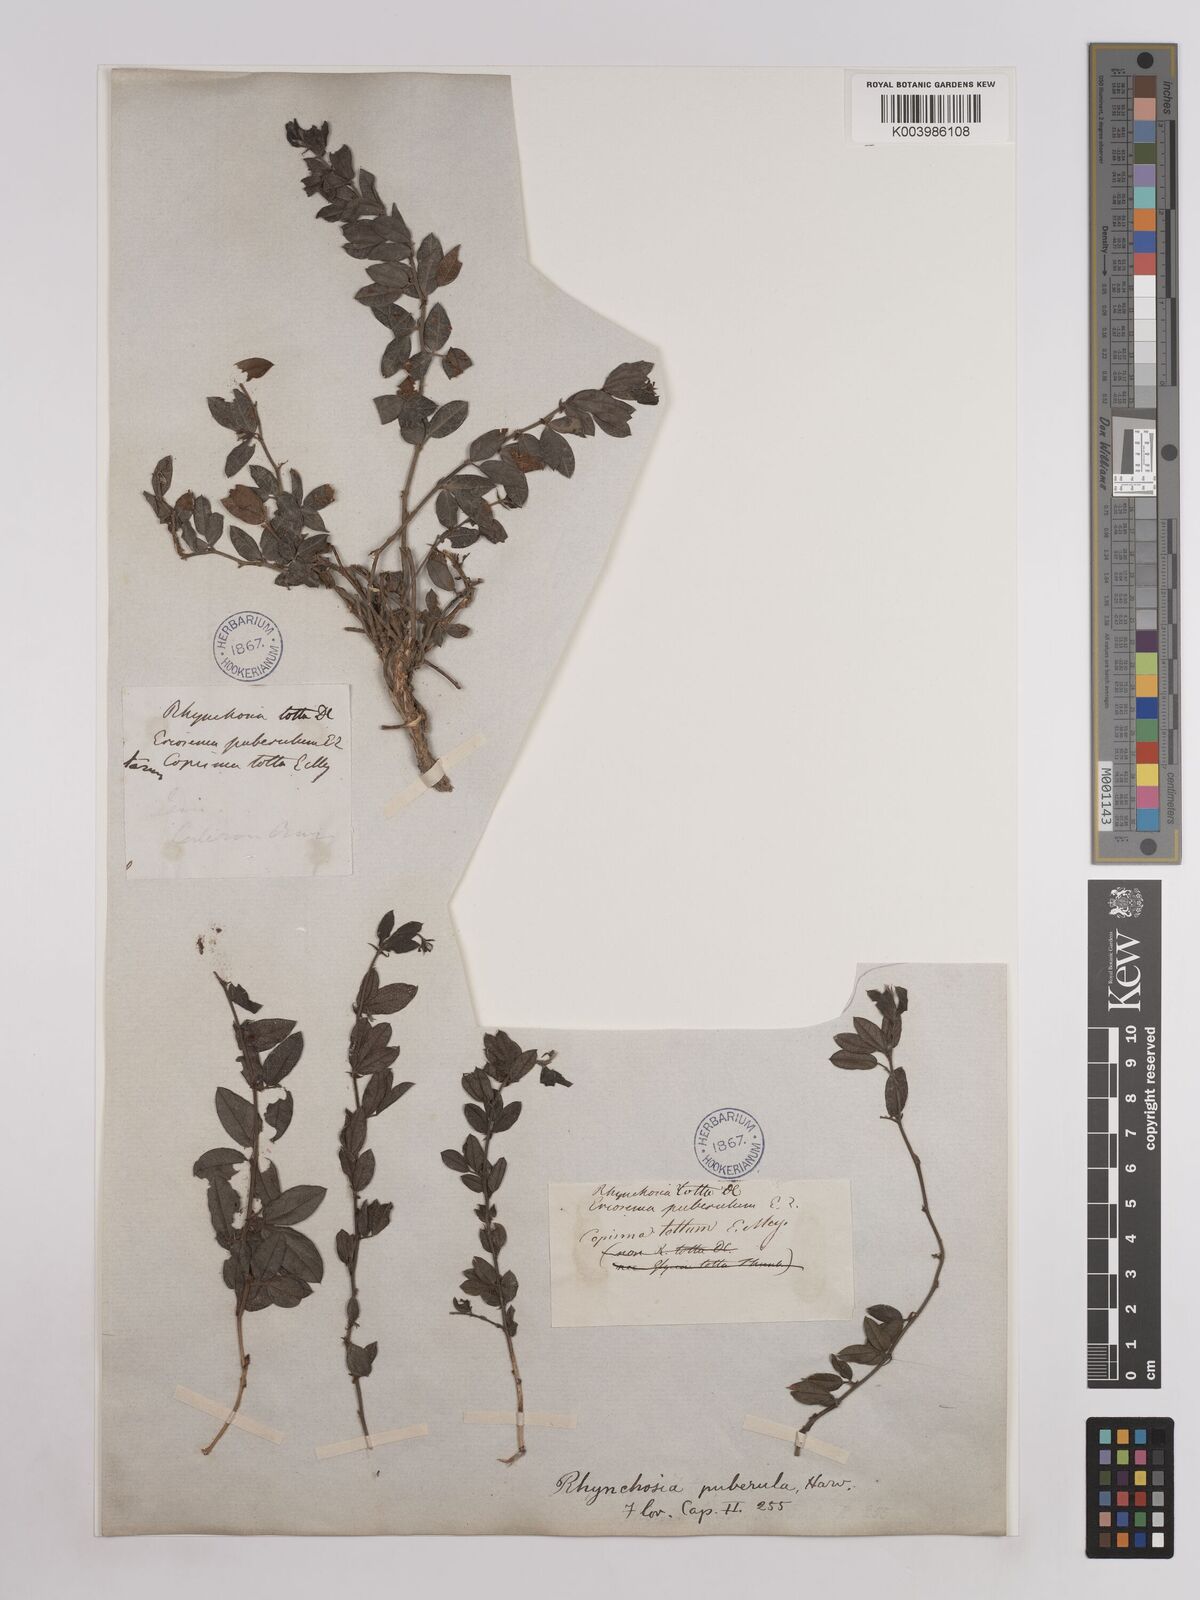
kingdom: Plantae
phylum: Tracheophyta
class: Magnoliopsida
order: Fabales
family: Fabaceae
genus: Rhynchosia
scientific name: Rhynchosia ciliata
